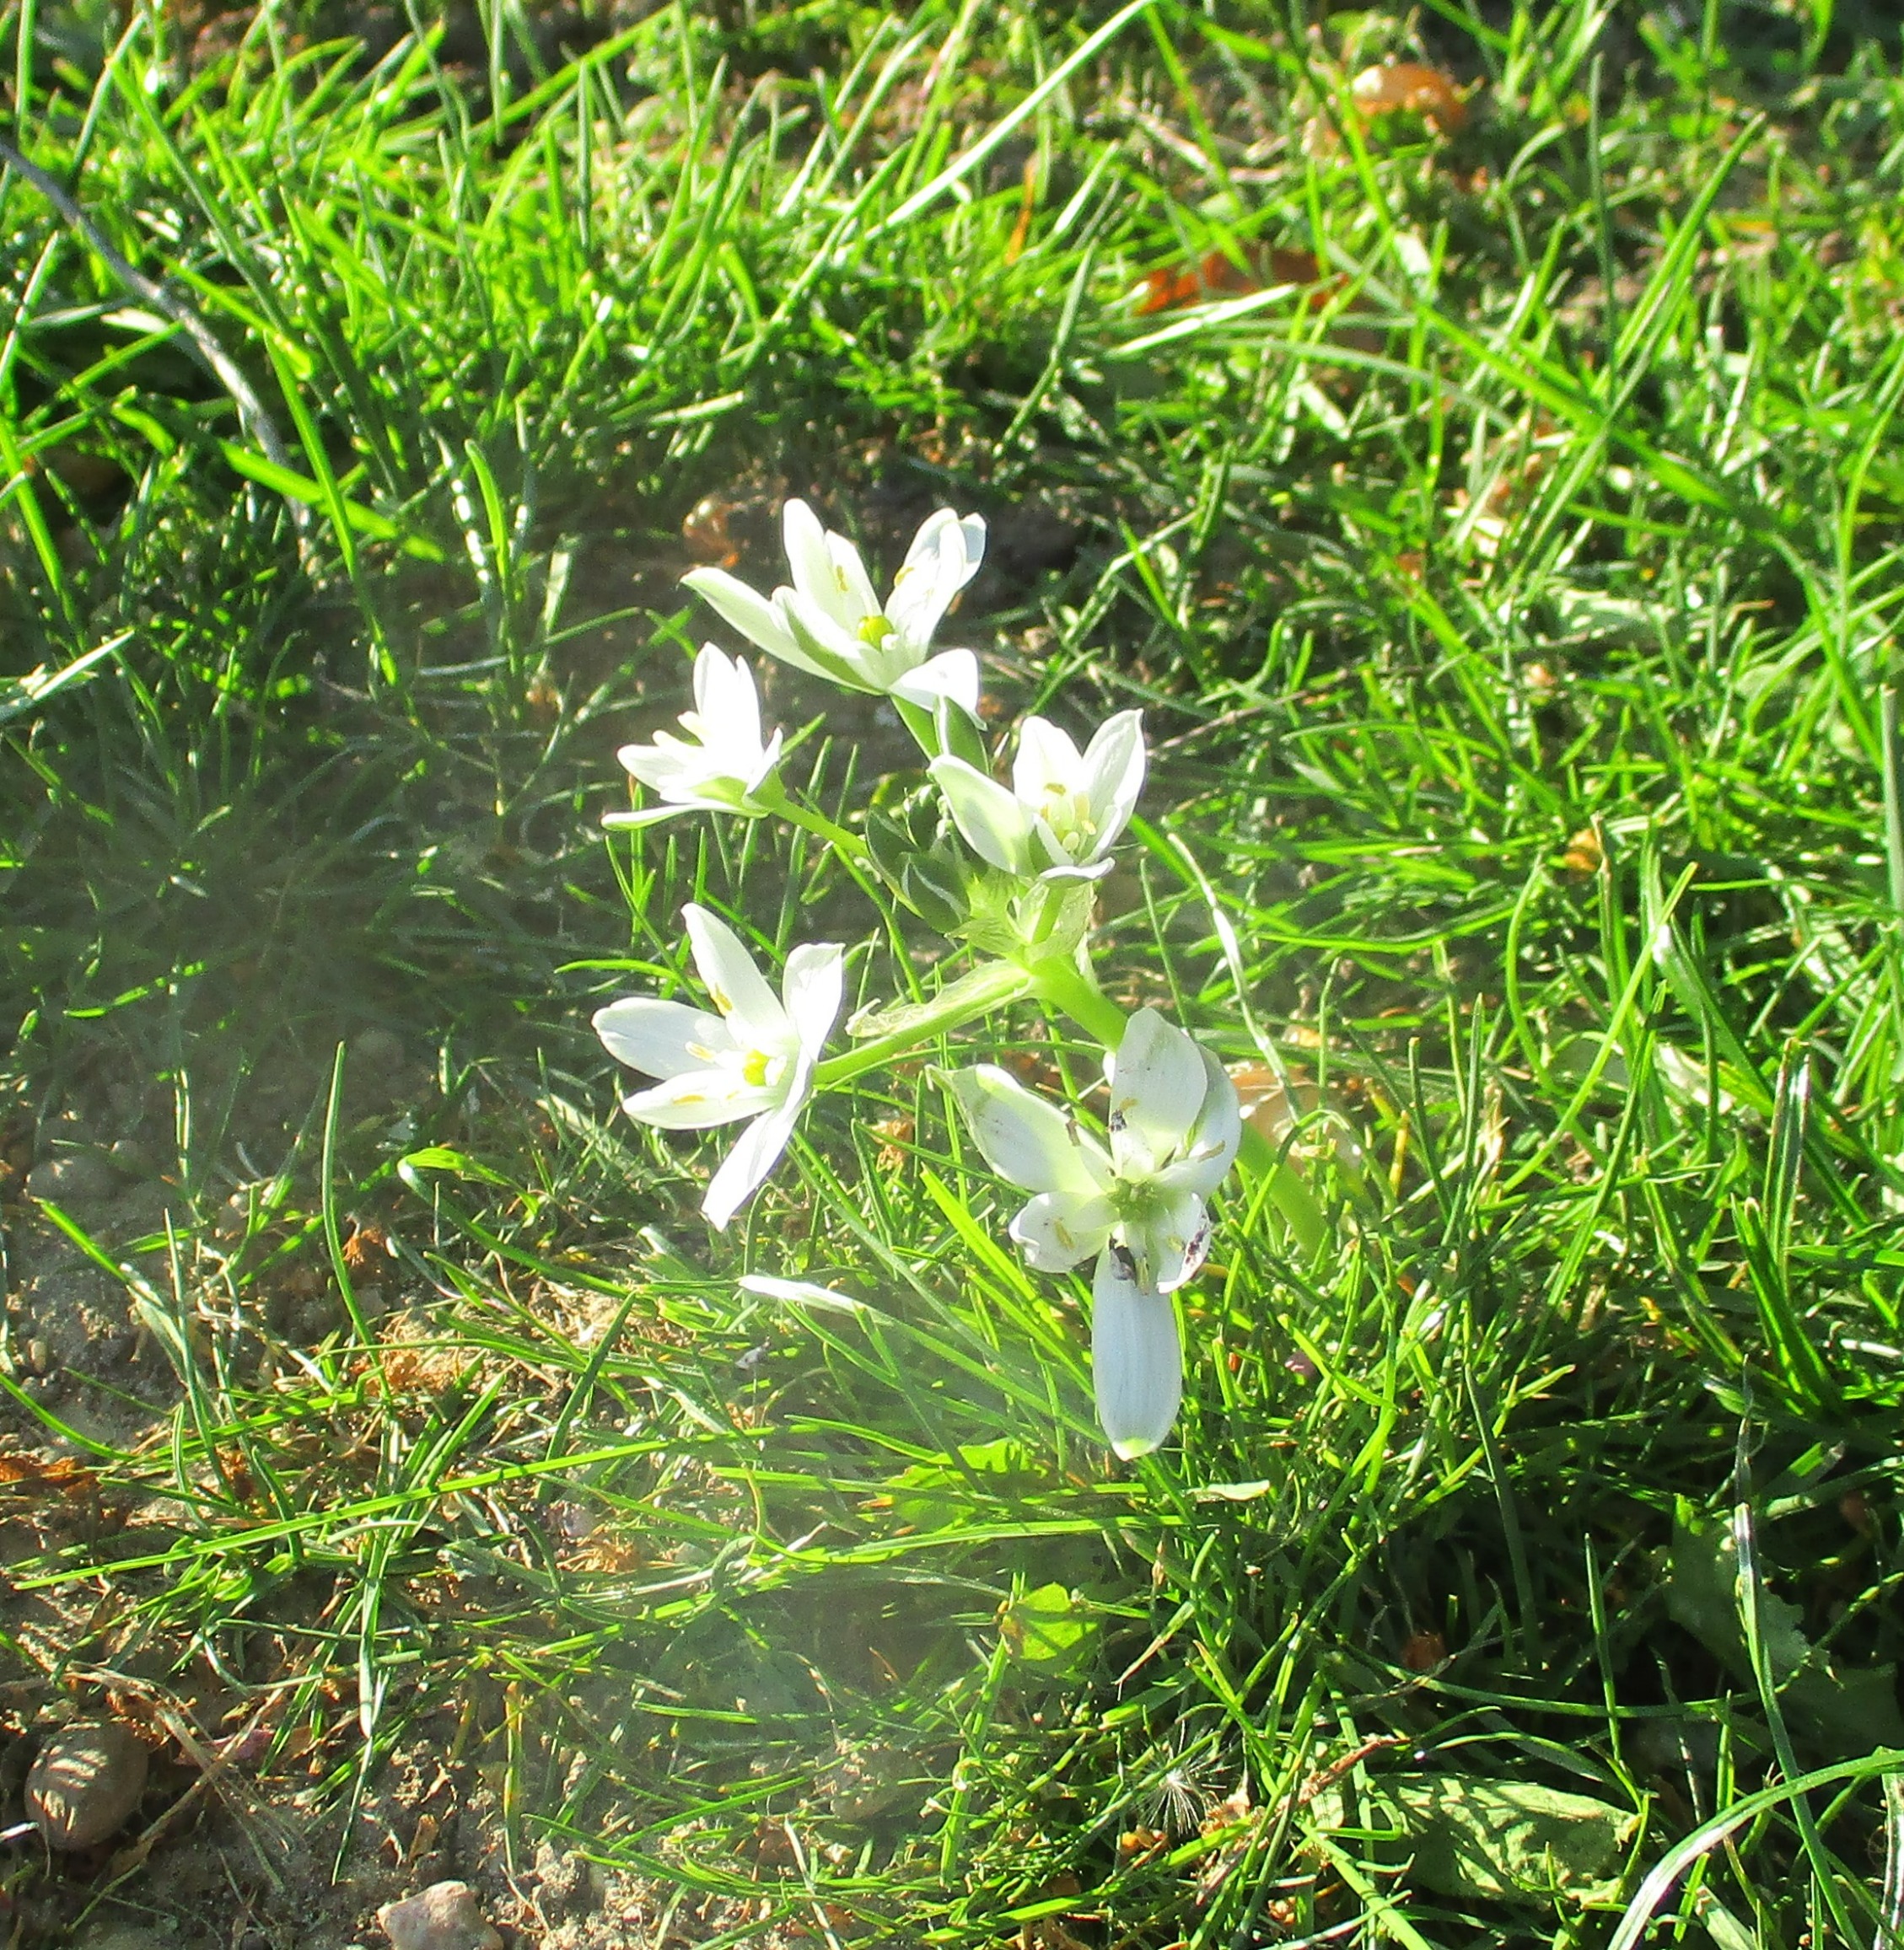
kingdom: Plantae
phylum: Tracheophyta
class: Liliopsida
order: Asparagales
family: Asparagaceae
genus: Ornithogalum
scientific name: Ornithogalum umbellatum
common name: Kost-fuglemælk
